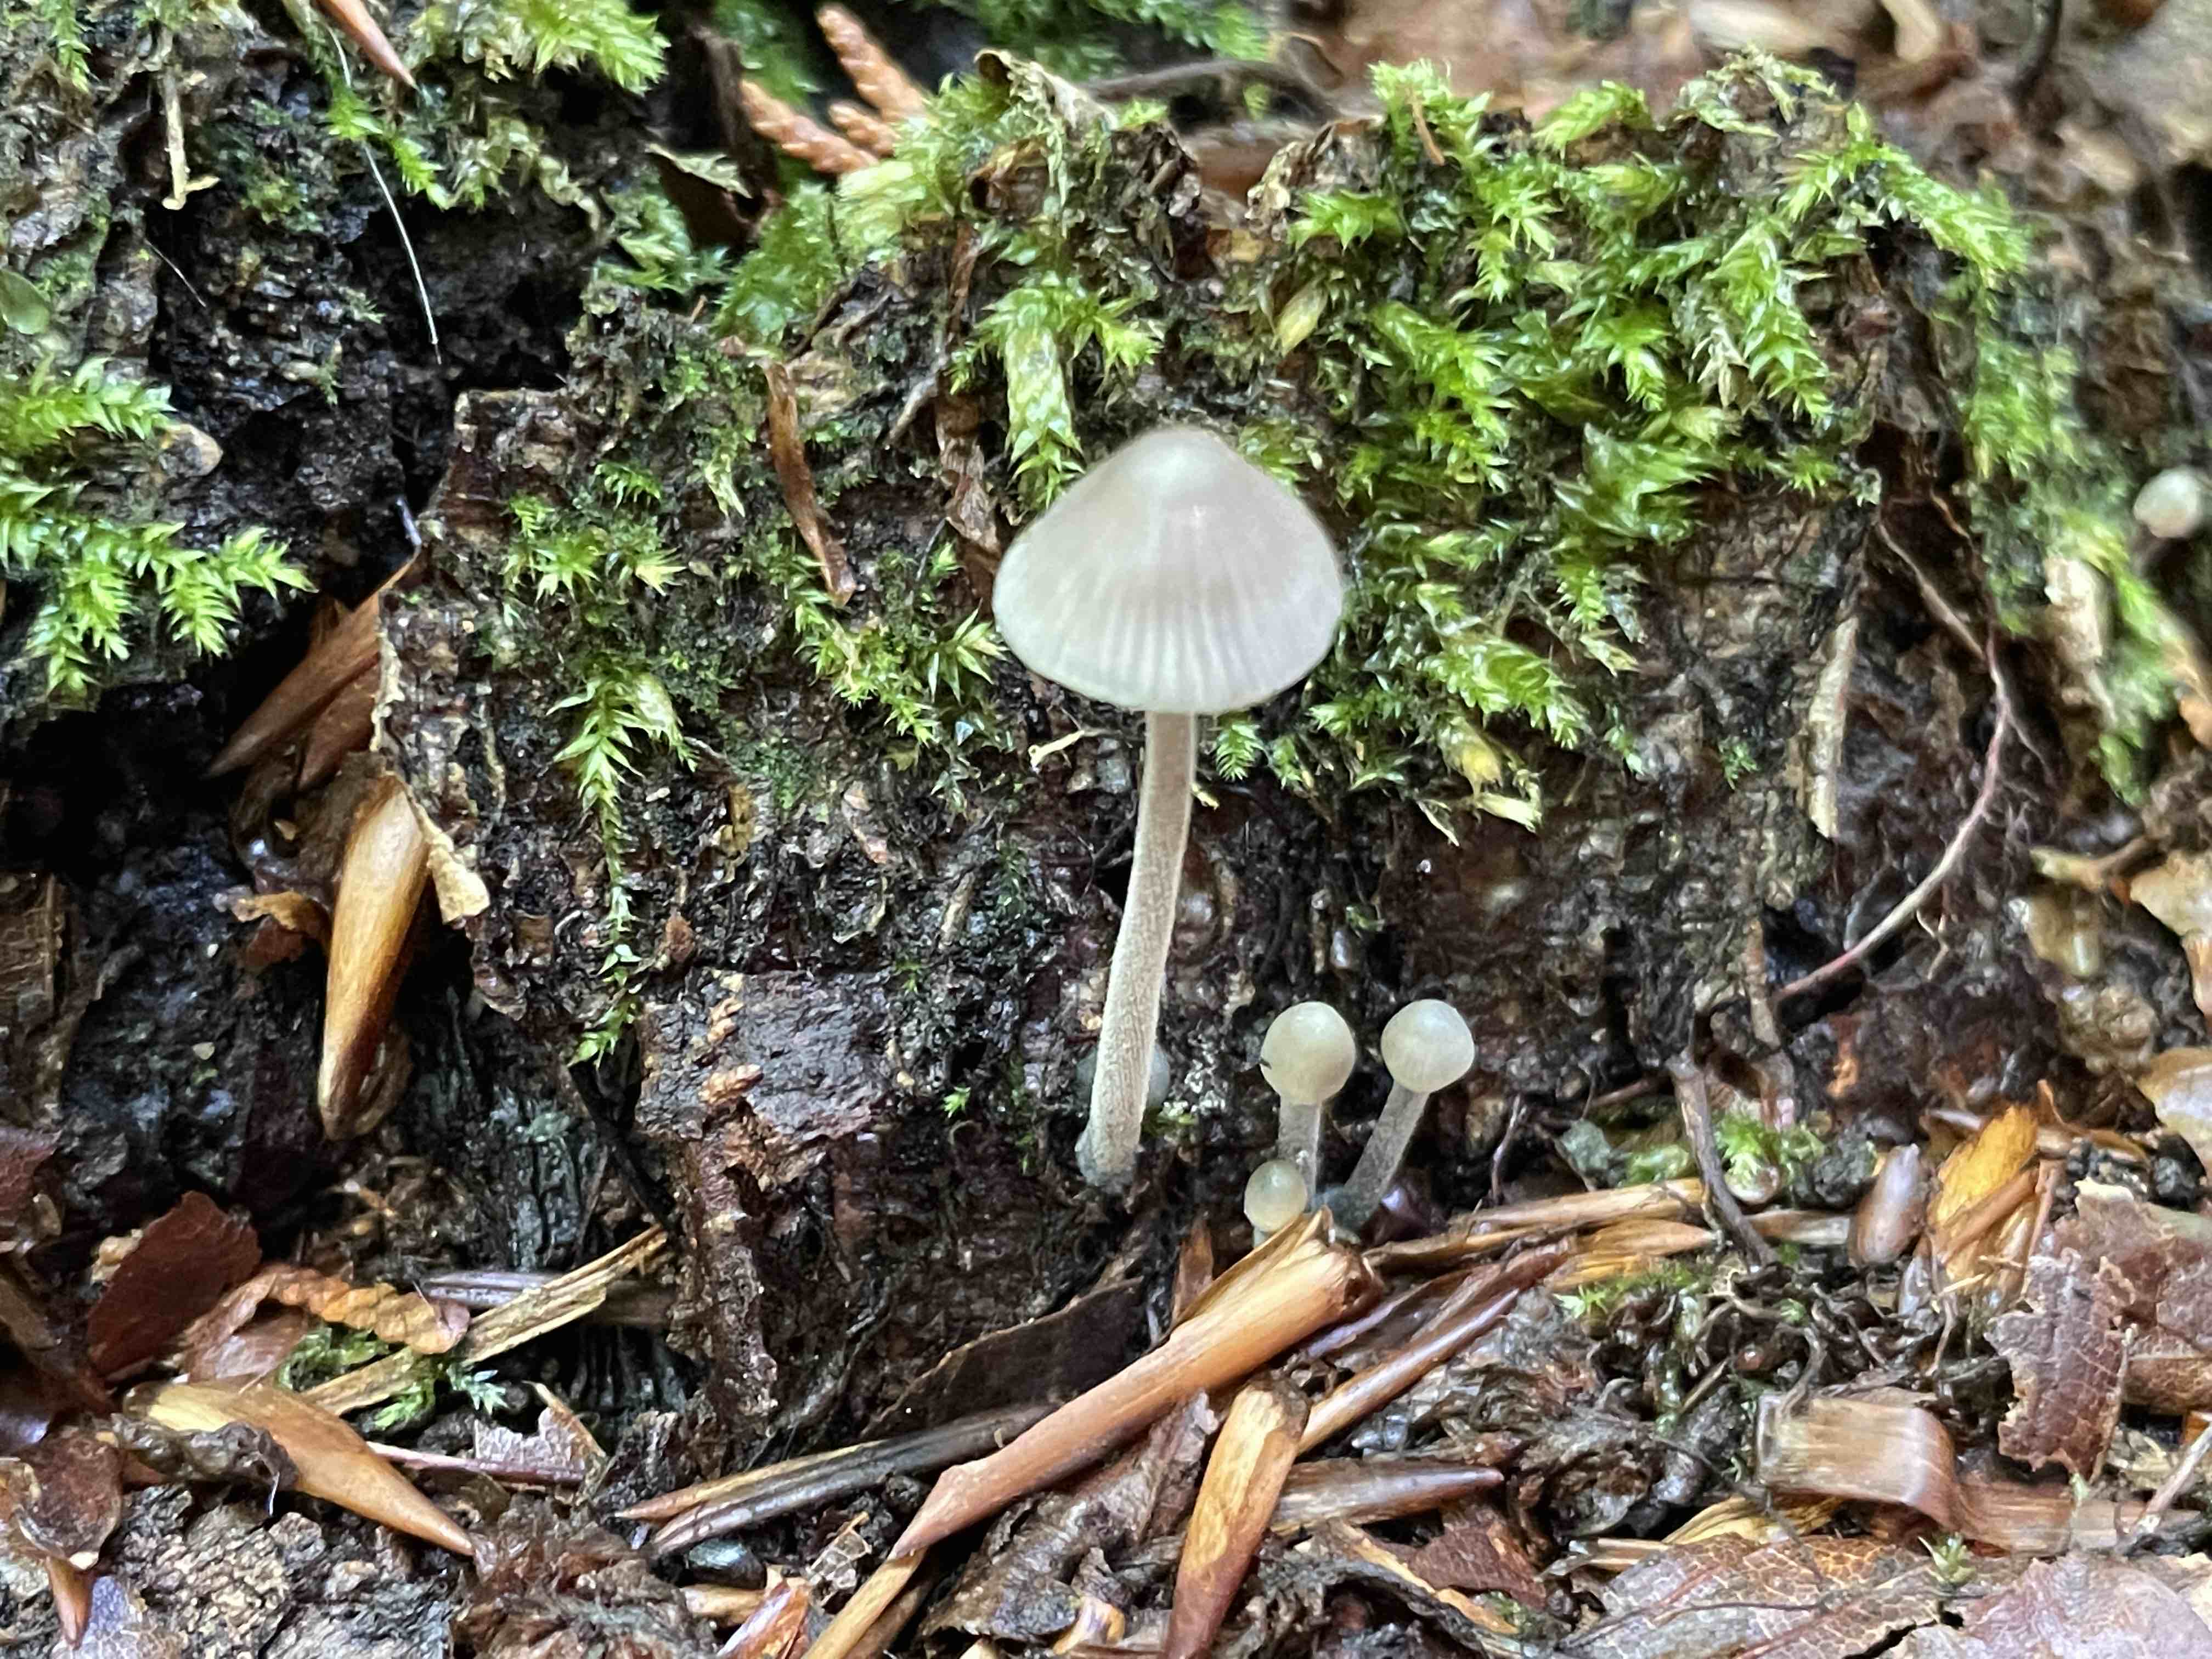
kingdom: Fungi
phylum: Basidiomycota
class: Agaricomycetes
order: Agaricales
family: Mycenaceae
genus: Mycena
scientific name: Mycena amicta
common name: iris-huesvamp
